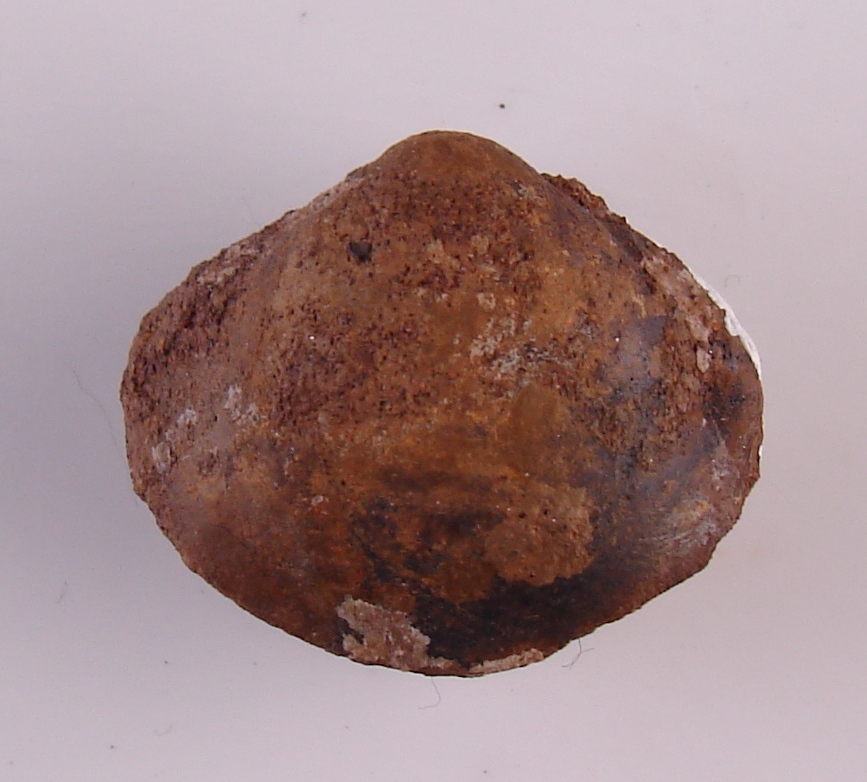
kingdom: Animalia
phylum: Mollusca
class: Bivalvia
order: Cardiida
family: Cardiidae
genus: Protocardia
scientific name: Protocardia
